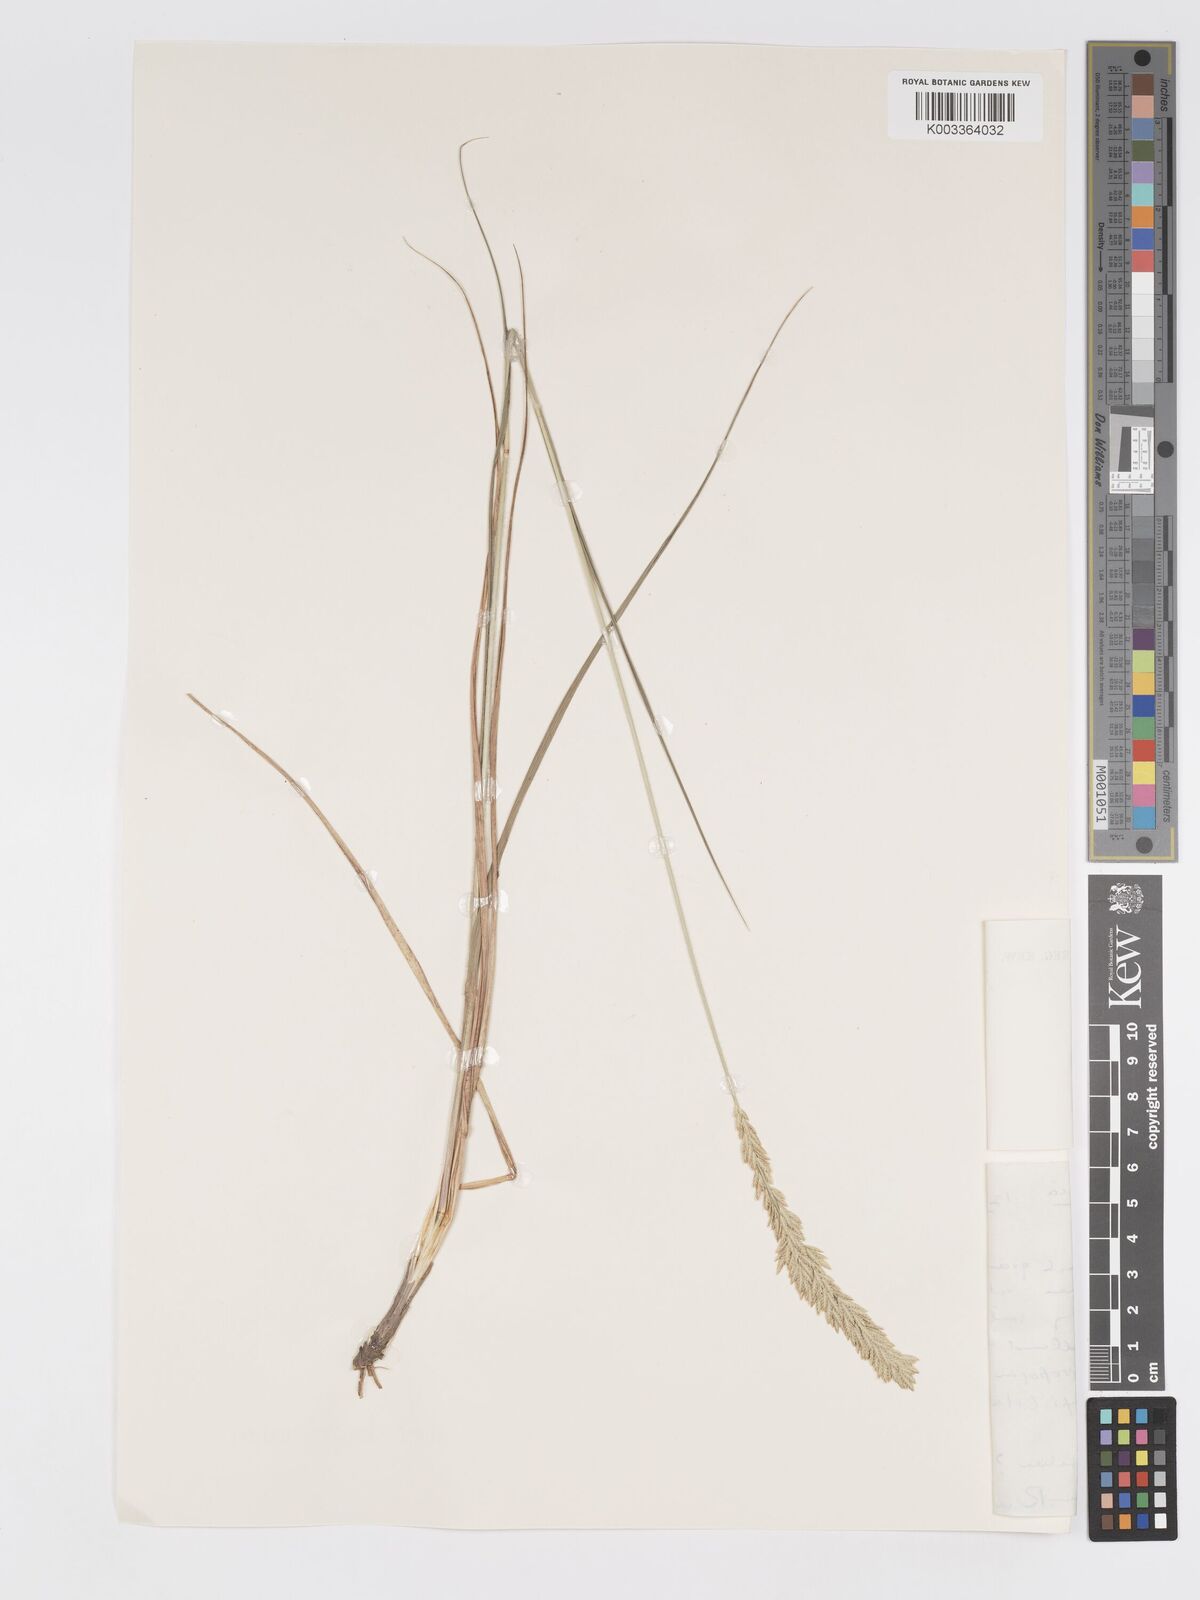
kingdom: Plantae
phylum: Tracheophyta
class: Liliopsida
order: Poales
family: Poaceae
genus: Eragrostis
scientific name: Eragrostis chapelieri
